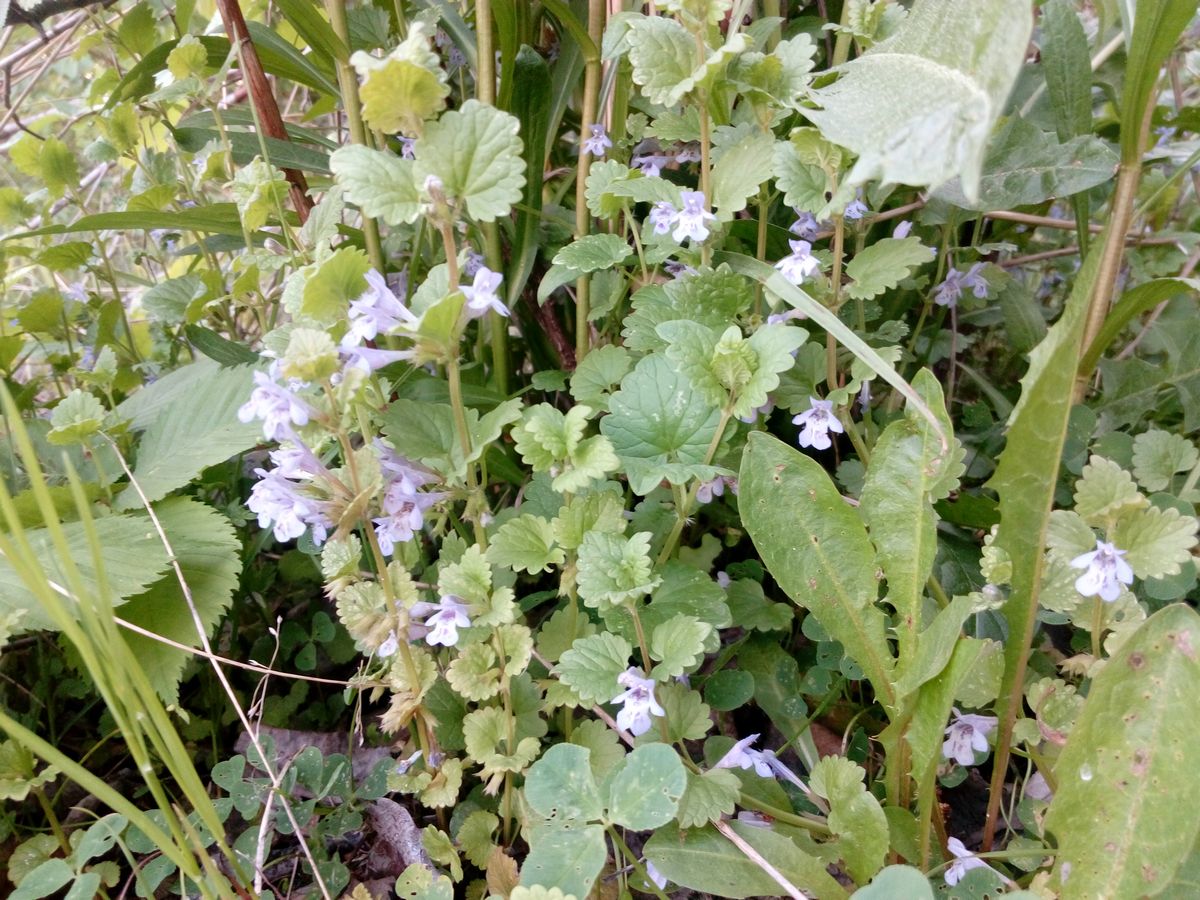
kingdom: Plantae
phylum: Tracheophyta
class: Magnoliopsida
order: Lamiales
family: Lamiaceae
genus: Glechoma
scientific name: Glechoma hederacea
